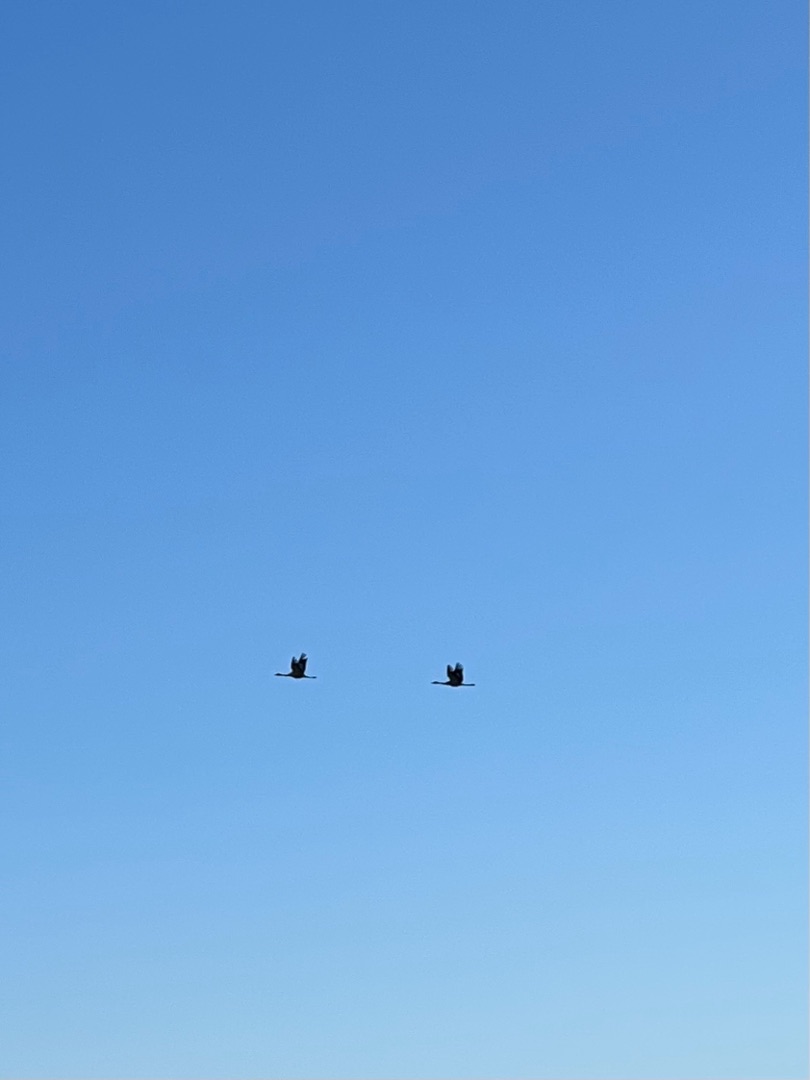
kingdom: Animalia
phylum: Chordata
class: Aves
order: Gruiformes
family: Gruidae
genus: Grus
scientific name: Grus grus
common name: Trane
